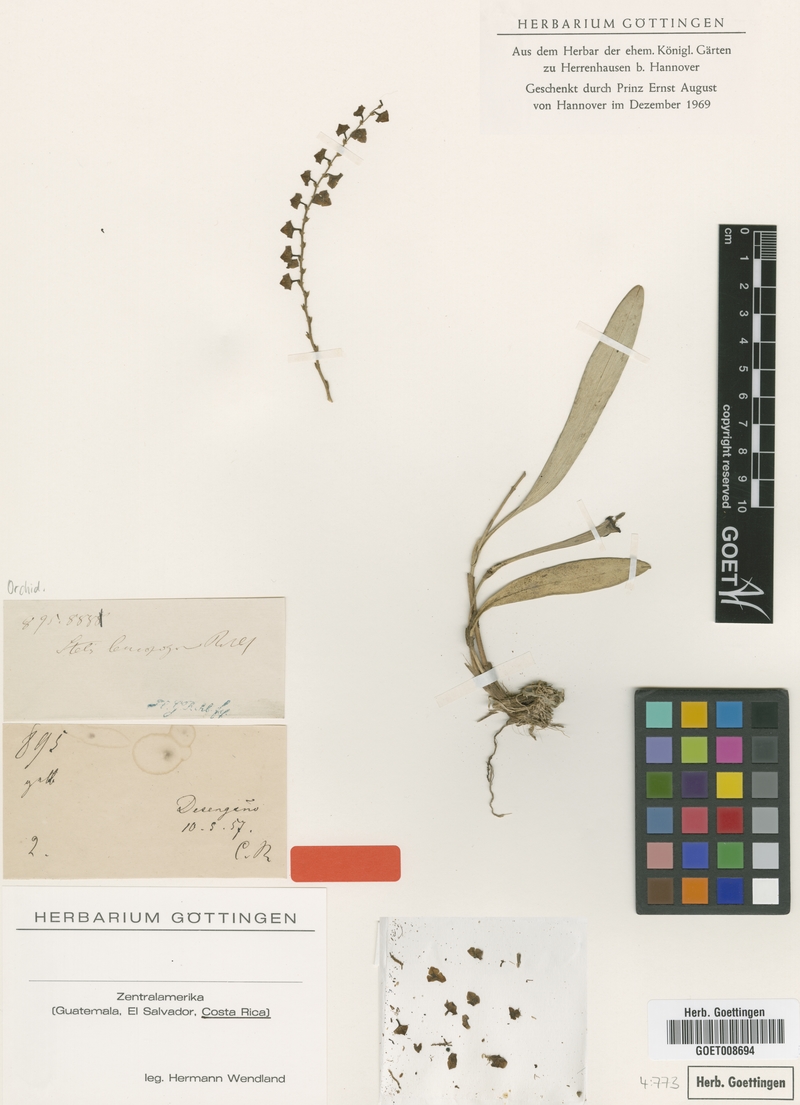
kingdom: Plantae
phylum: Tracheophyta
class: Liliopsida
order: Asparagales
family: Orchidaceae
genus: Stelis
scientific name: Stelis superbiens
